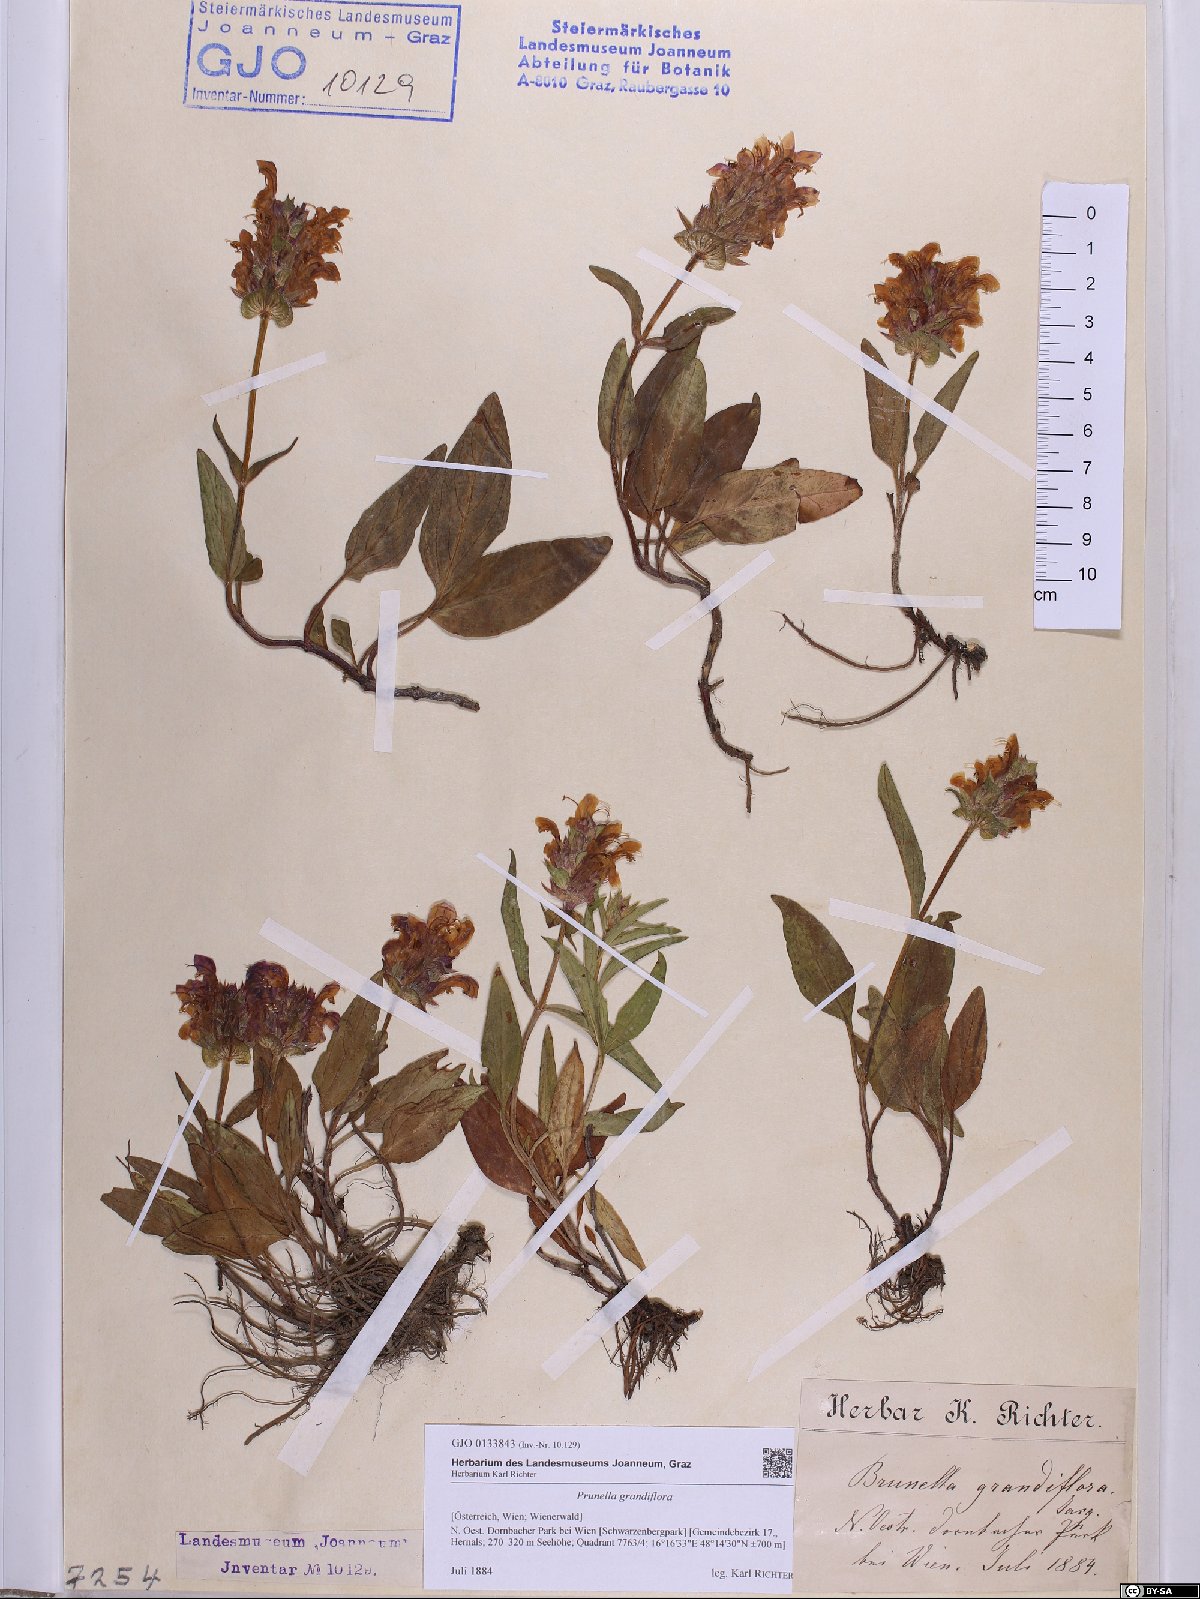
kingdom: Plantae
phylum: Tracheophyta
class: Magnoliopsida
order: Lamiales
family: Lamiaceae
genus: Prunella
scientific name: Prunella grandiflora
